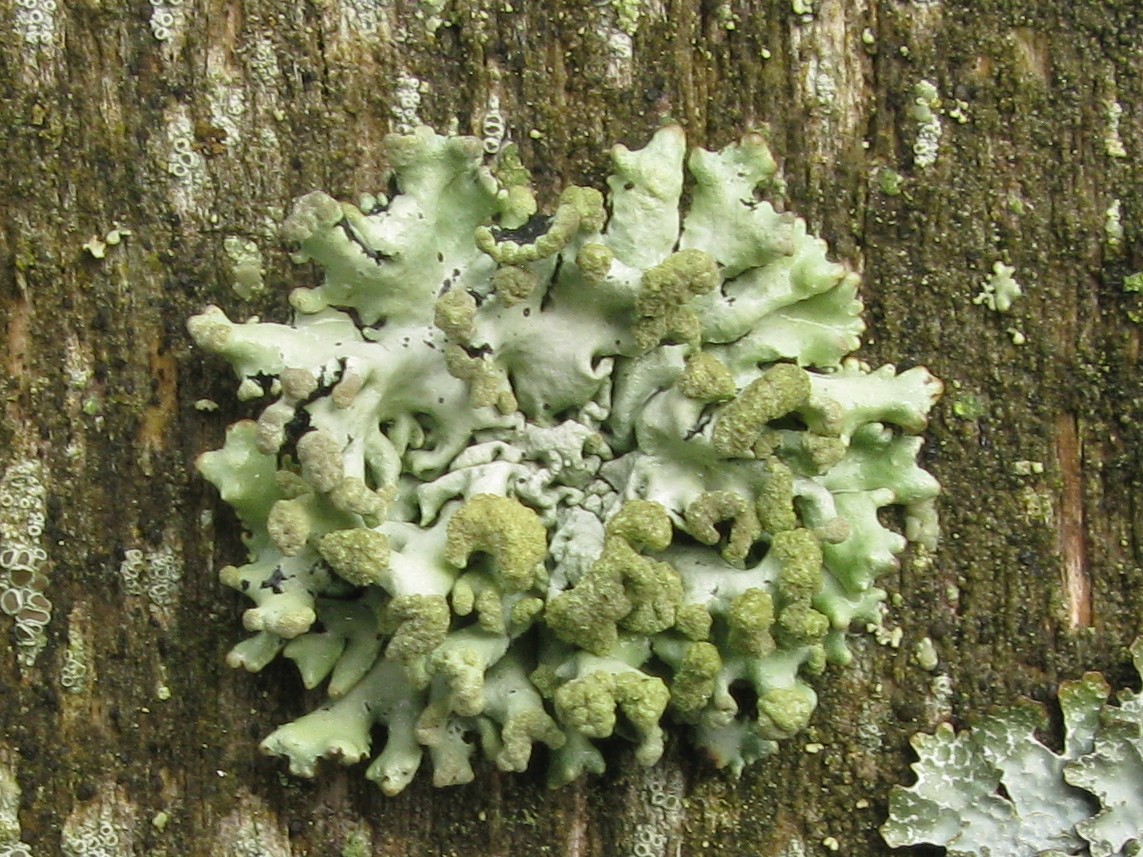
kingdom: Fungi
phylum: Ascomycota
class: Lecanoromycetes
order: Lecanorales
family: Parmeliaceae
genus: Hypogymnia
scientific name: Hypogymnia tubulosa
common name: finger-kvistlav
